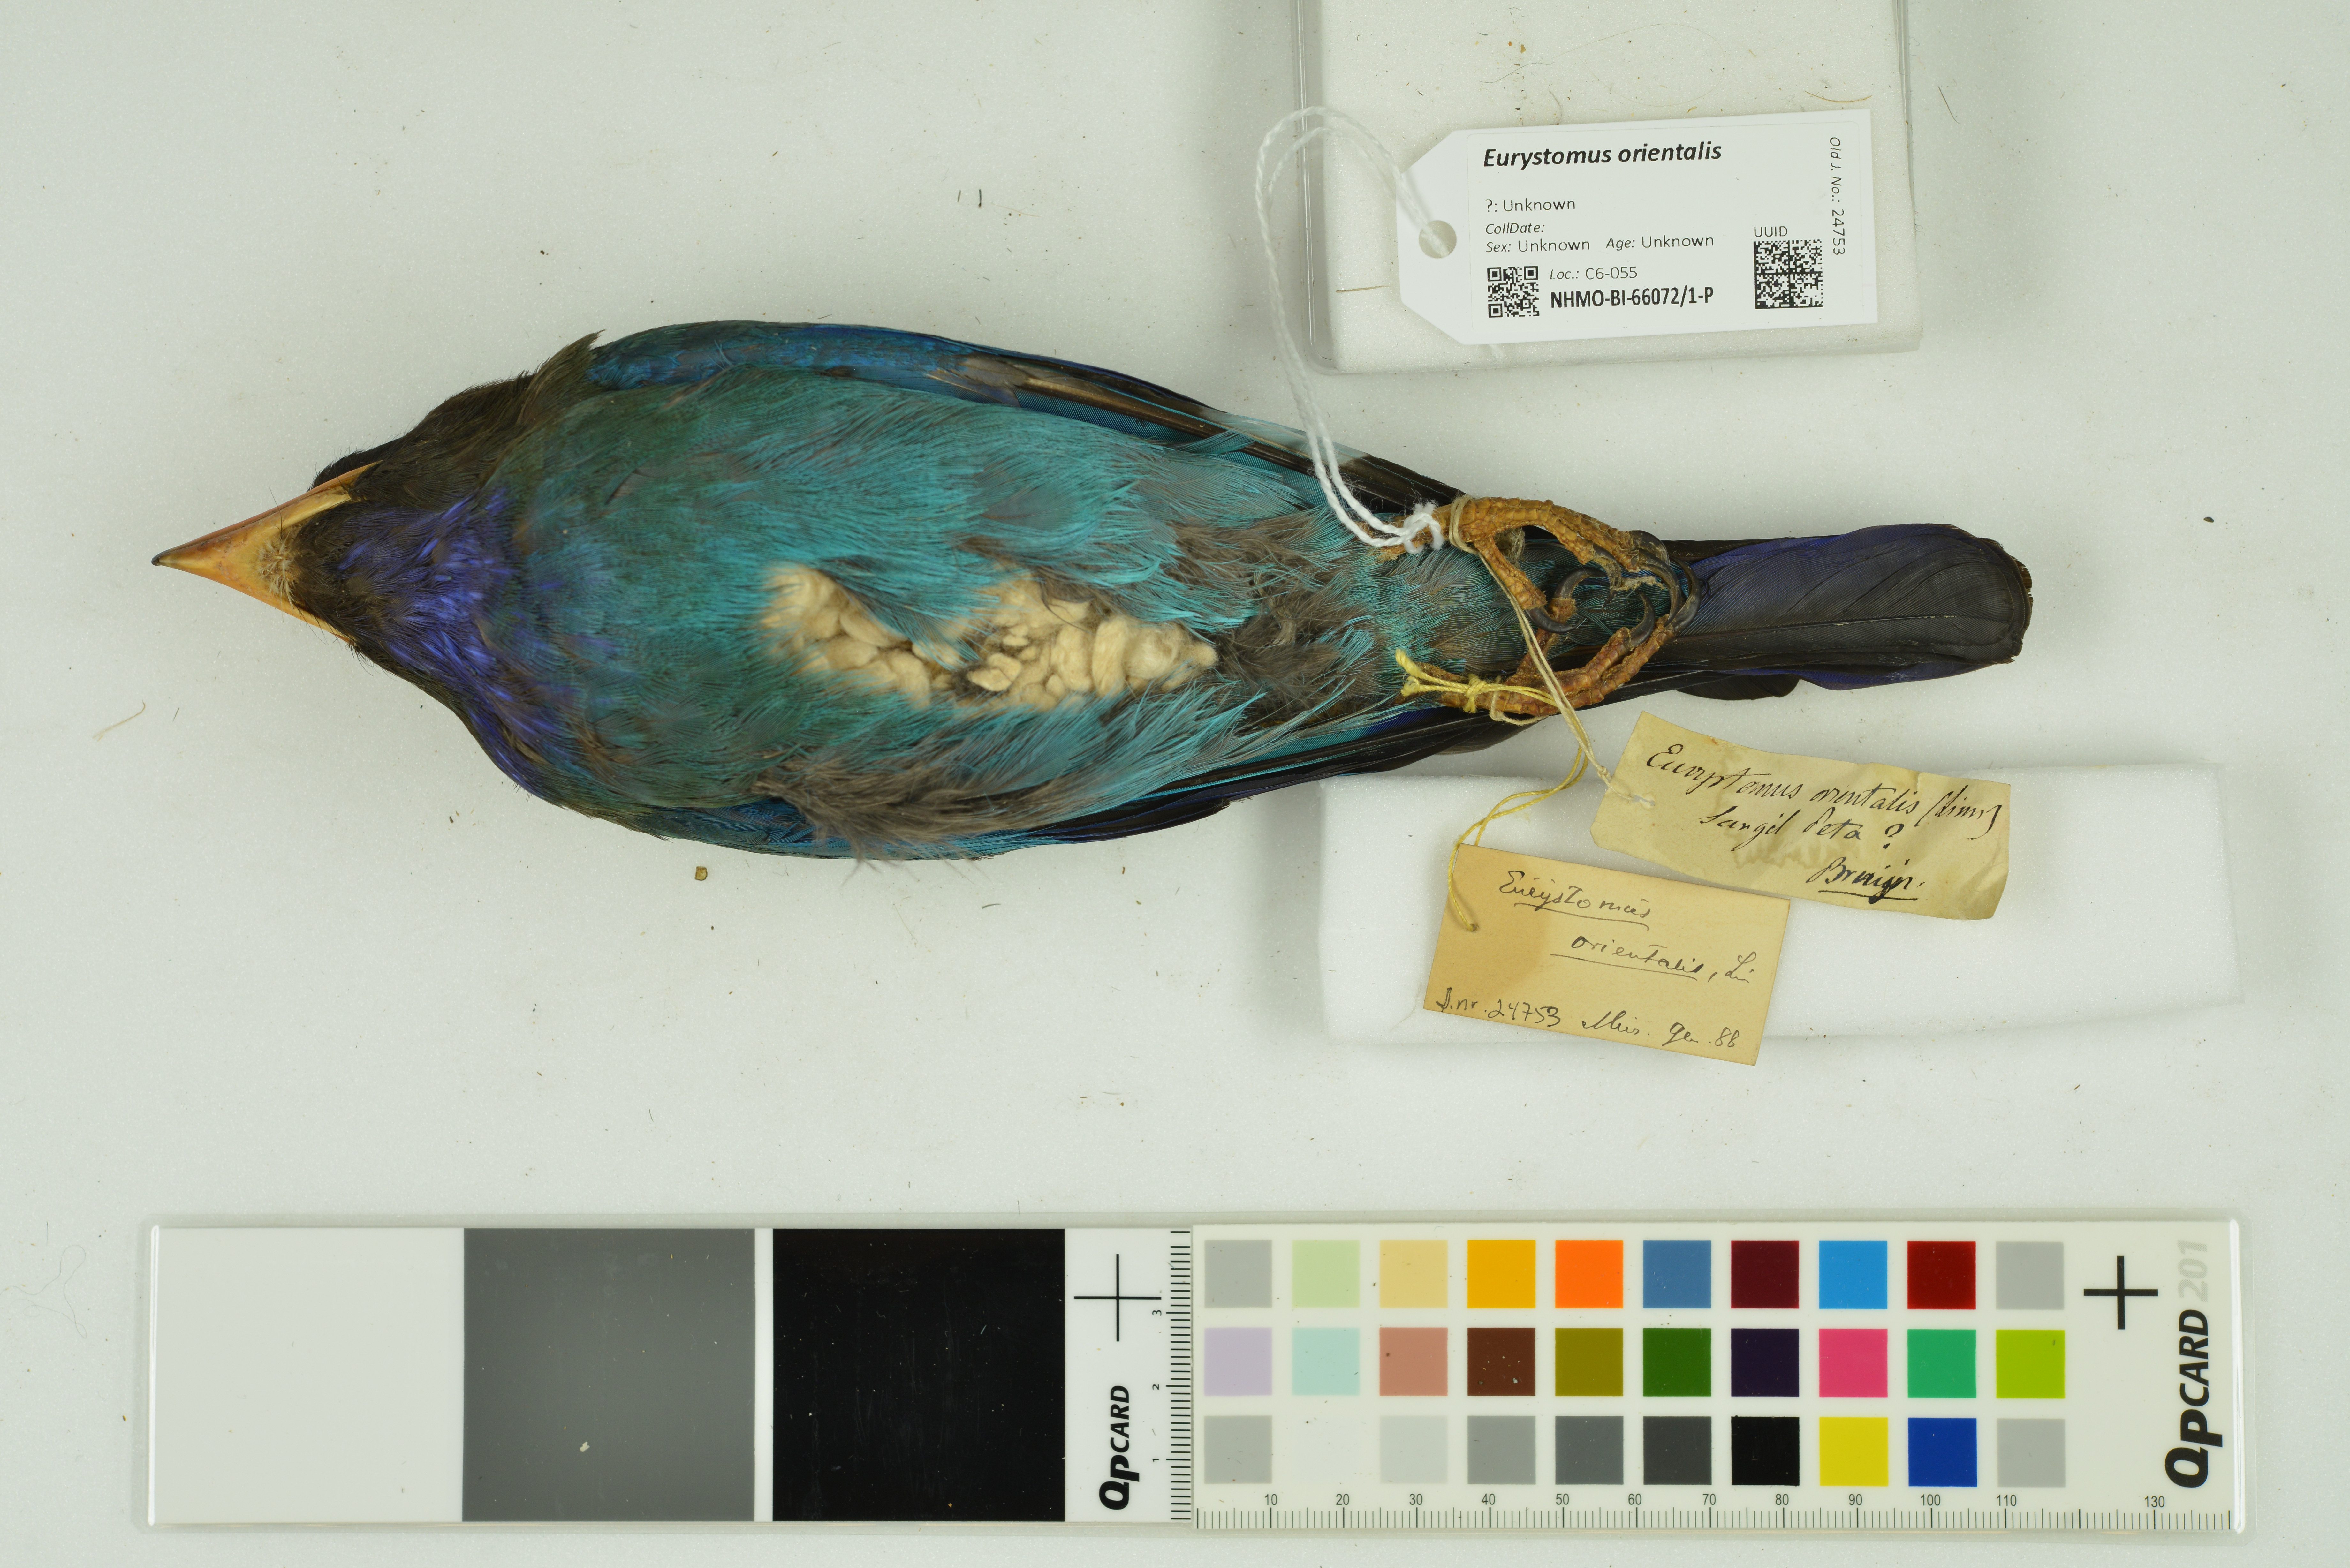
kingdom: Animalia
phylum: Chordata
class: Aves
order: Coraciiformes
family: Coraciidae
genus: Eurystomus
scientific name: Eurystomus orientalis
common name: Oriental dollarbird
